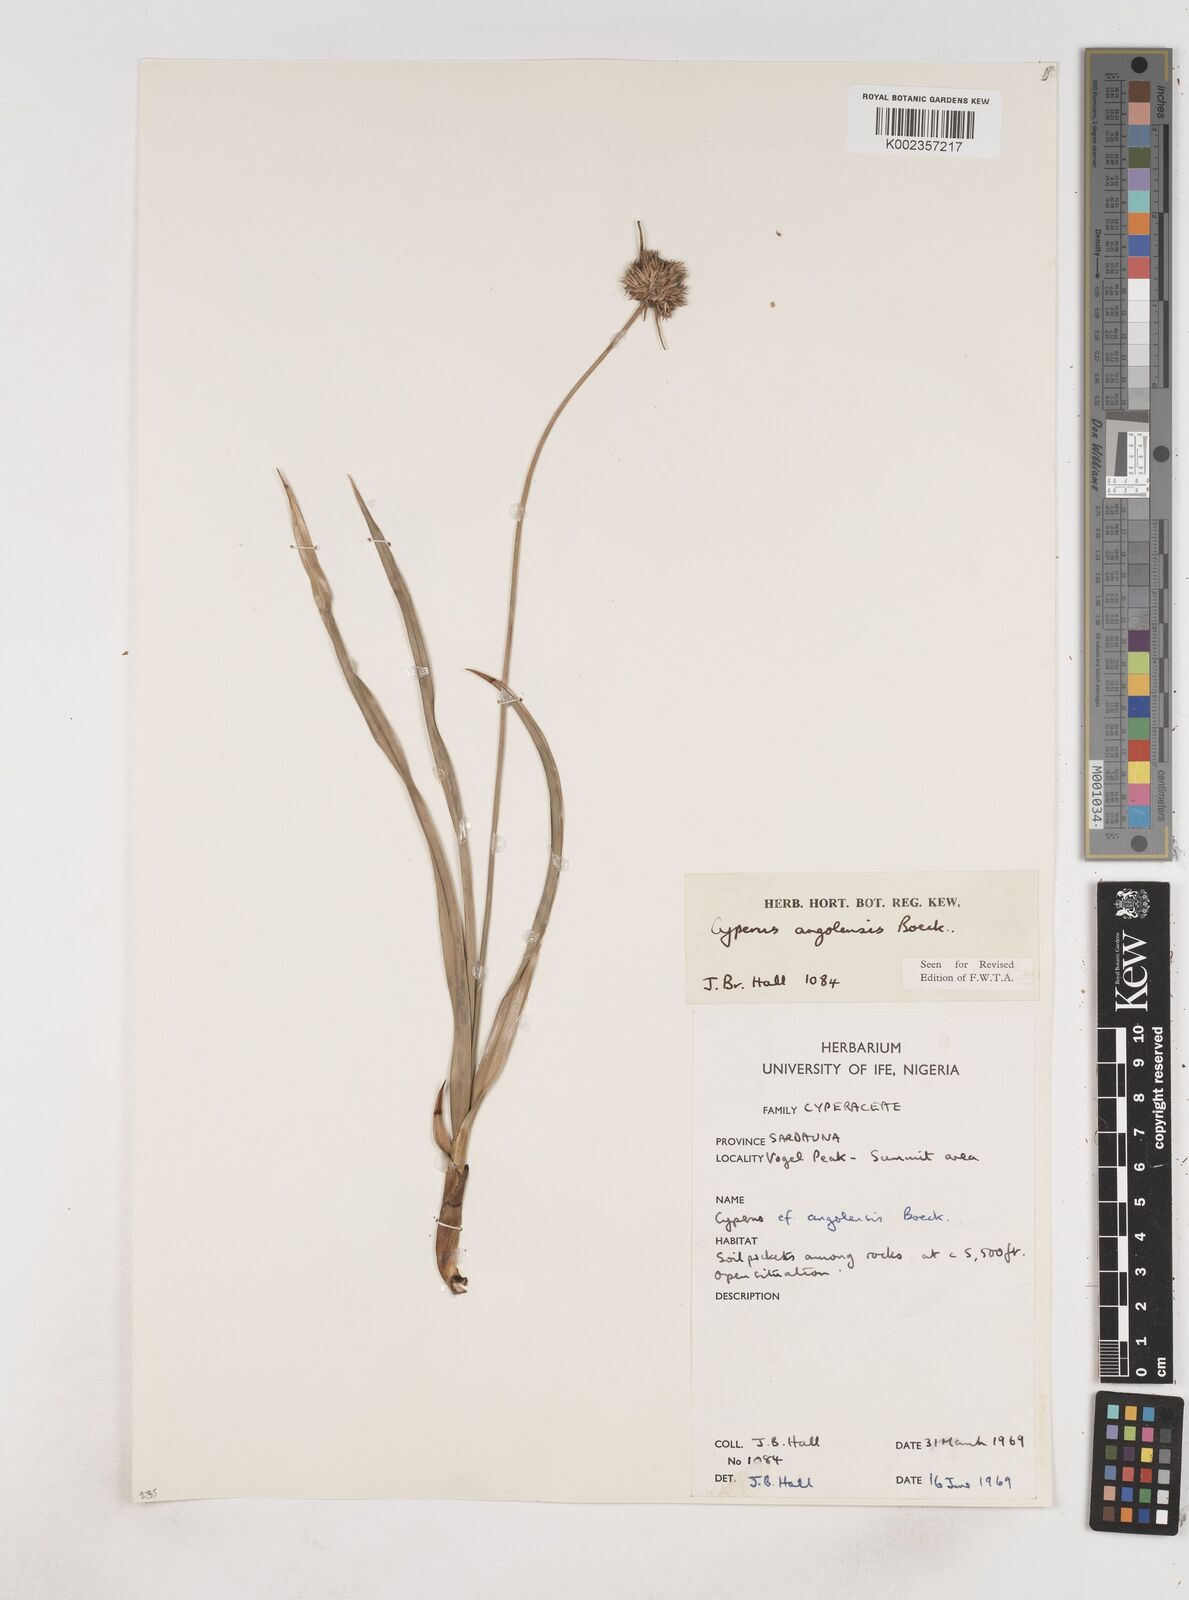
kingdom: Plantae
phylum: Tracheophyta
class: Liliopsida
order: Poales
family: Cyperaceae
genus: Cyperus
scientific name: Cyperus angolensis
